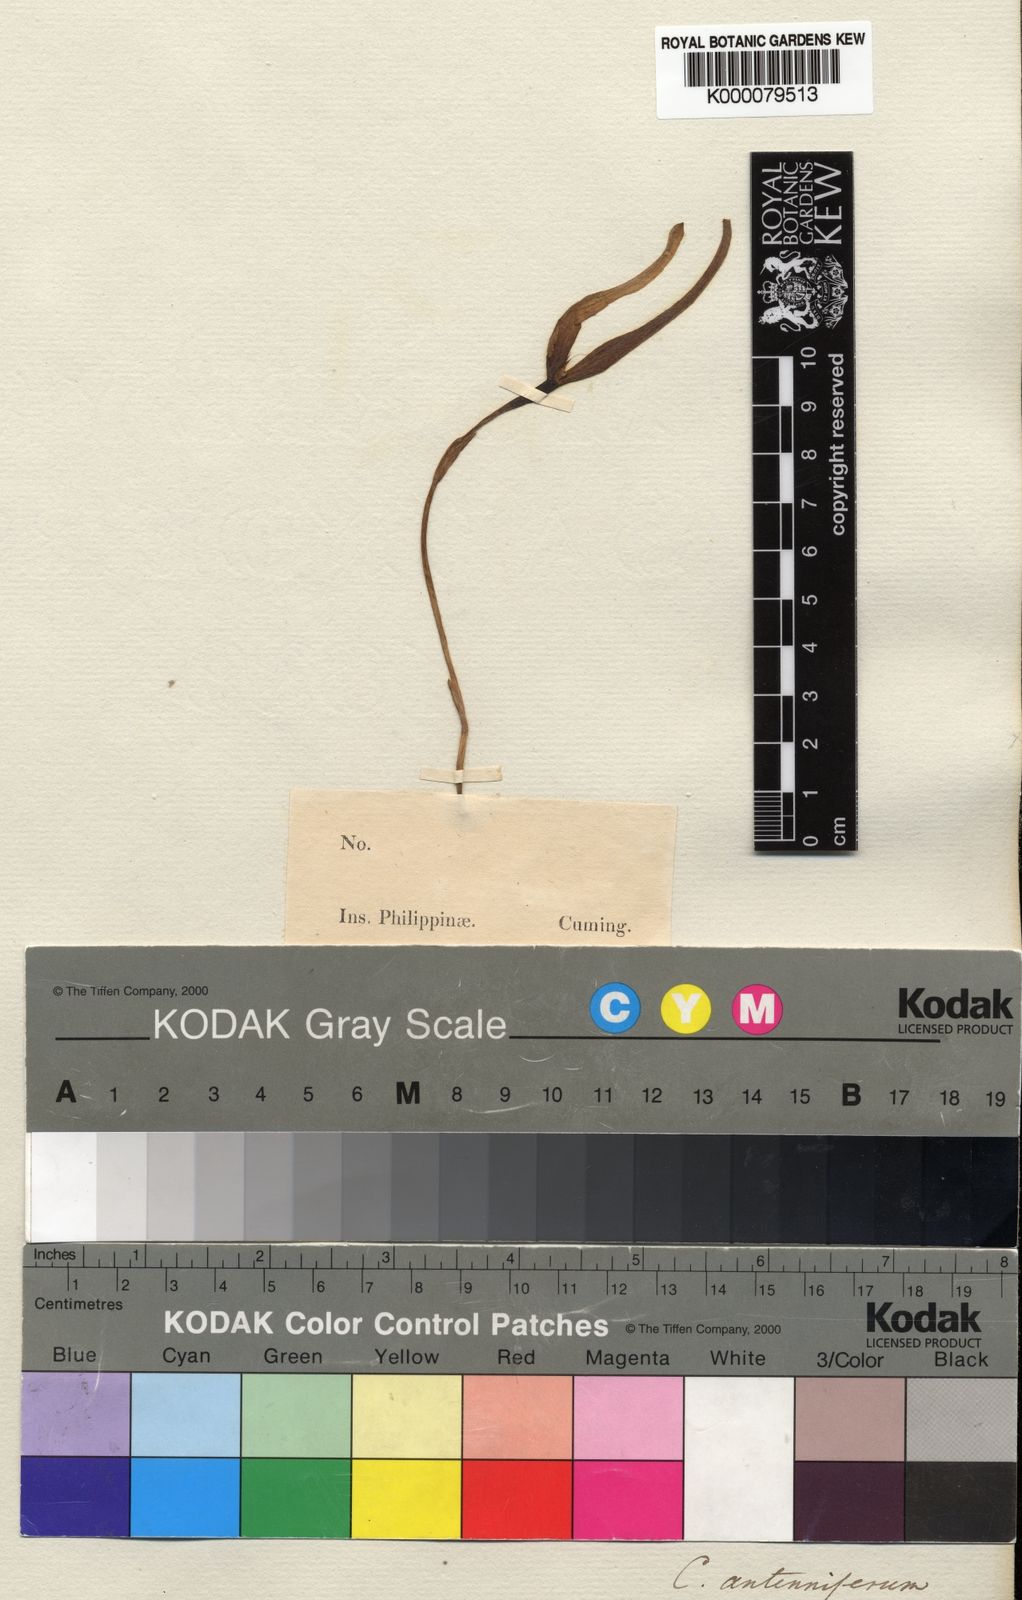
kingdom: Plantae
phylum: Tracheophyta
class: Liliopsida
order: Asparagales
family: Orchidaceae
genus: Bulbophyllum
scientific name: Bulbophyllum antenniferum
